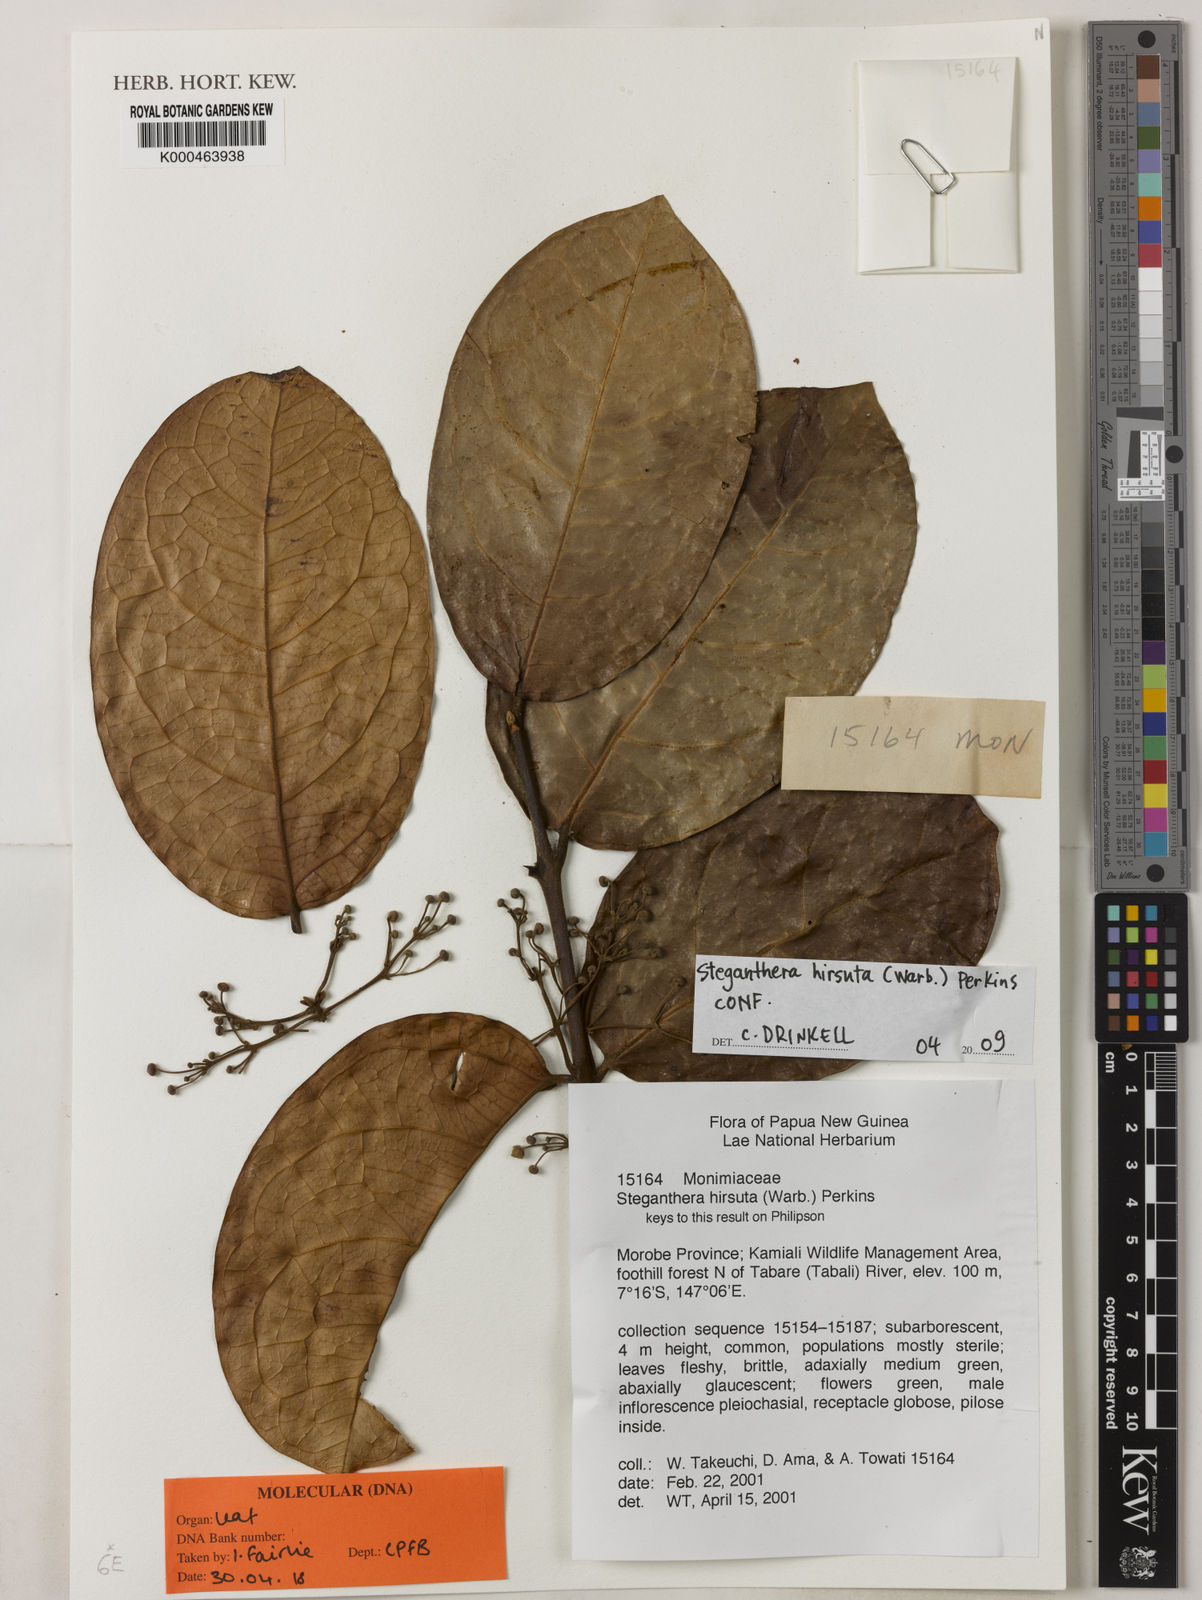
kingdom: Plantae
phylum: Tracheophyta
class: Magnoliopsida
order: Laurales
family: Monimiaceae
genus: Steganthera
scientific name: Steganthera hirsuta
